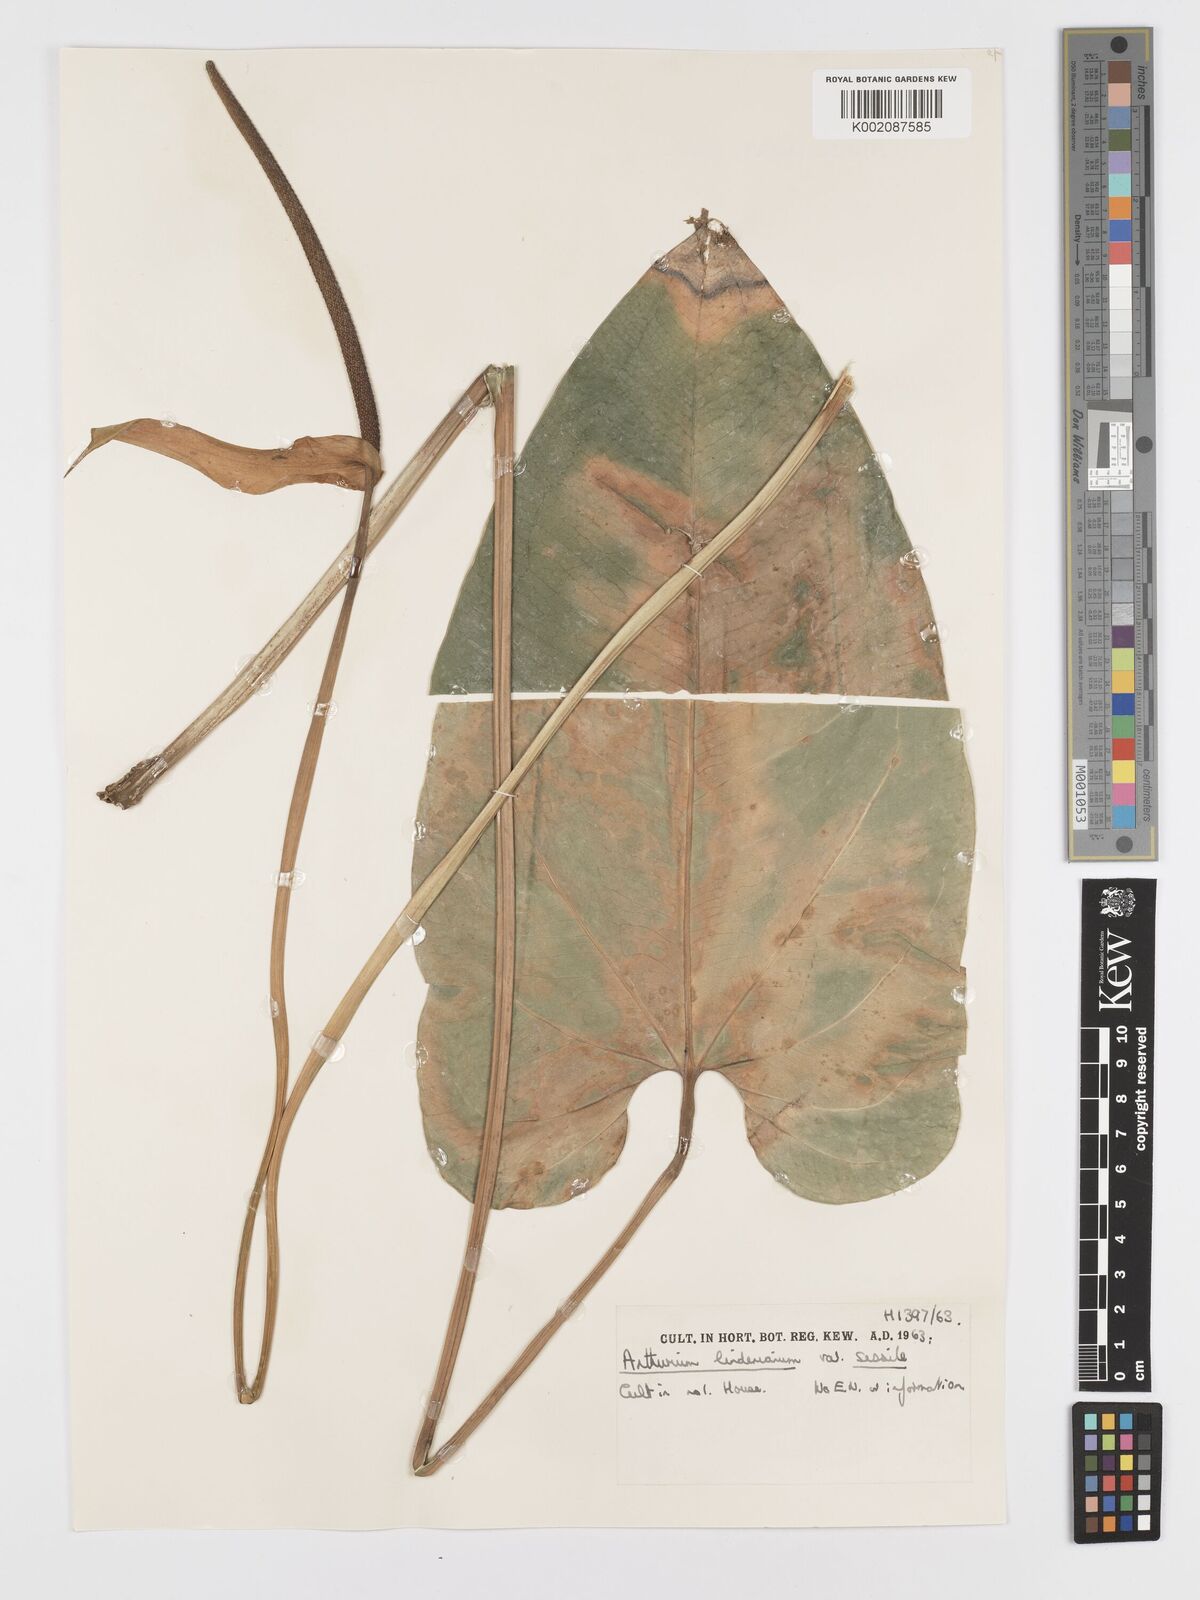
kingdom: Plantae
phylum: Tracheophyta
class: Liliopsida
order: Alismatales
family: Araceae
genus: Anthurium
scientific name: Anthurium cordatum
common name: Monkey tail
